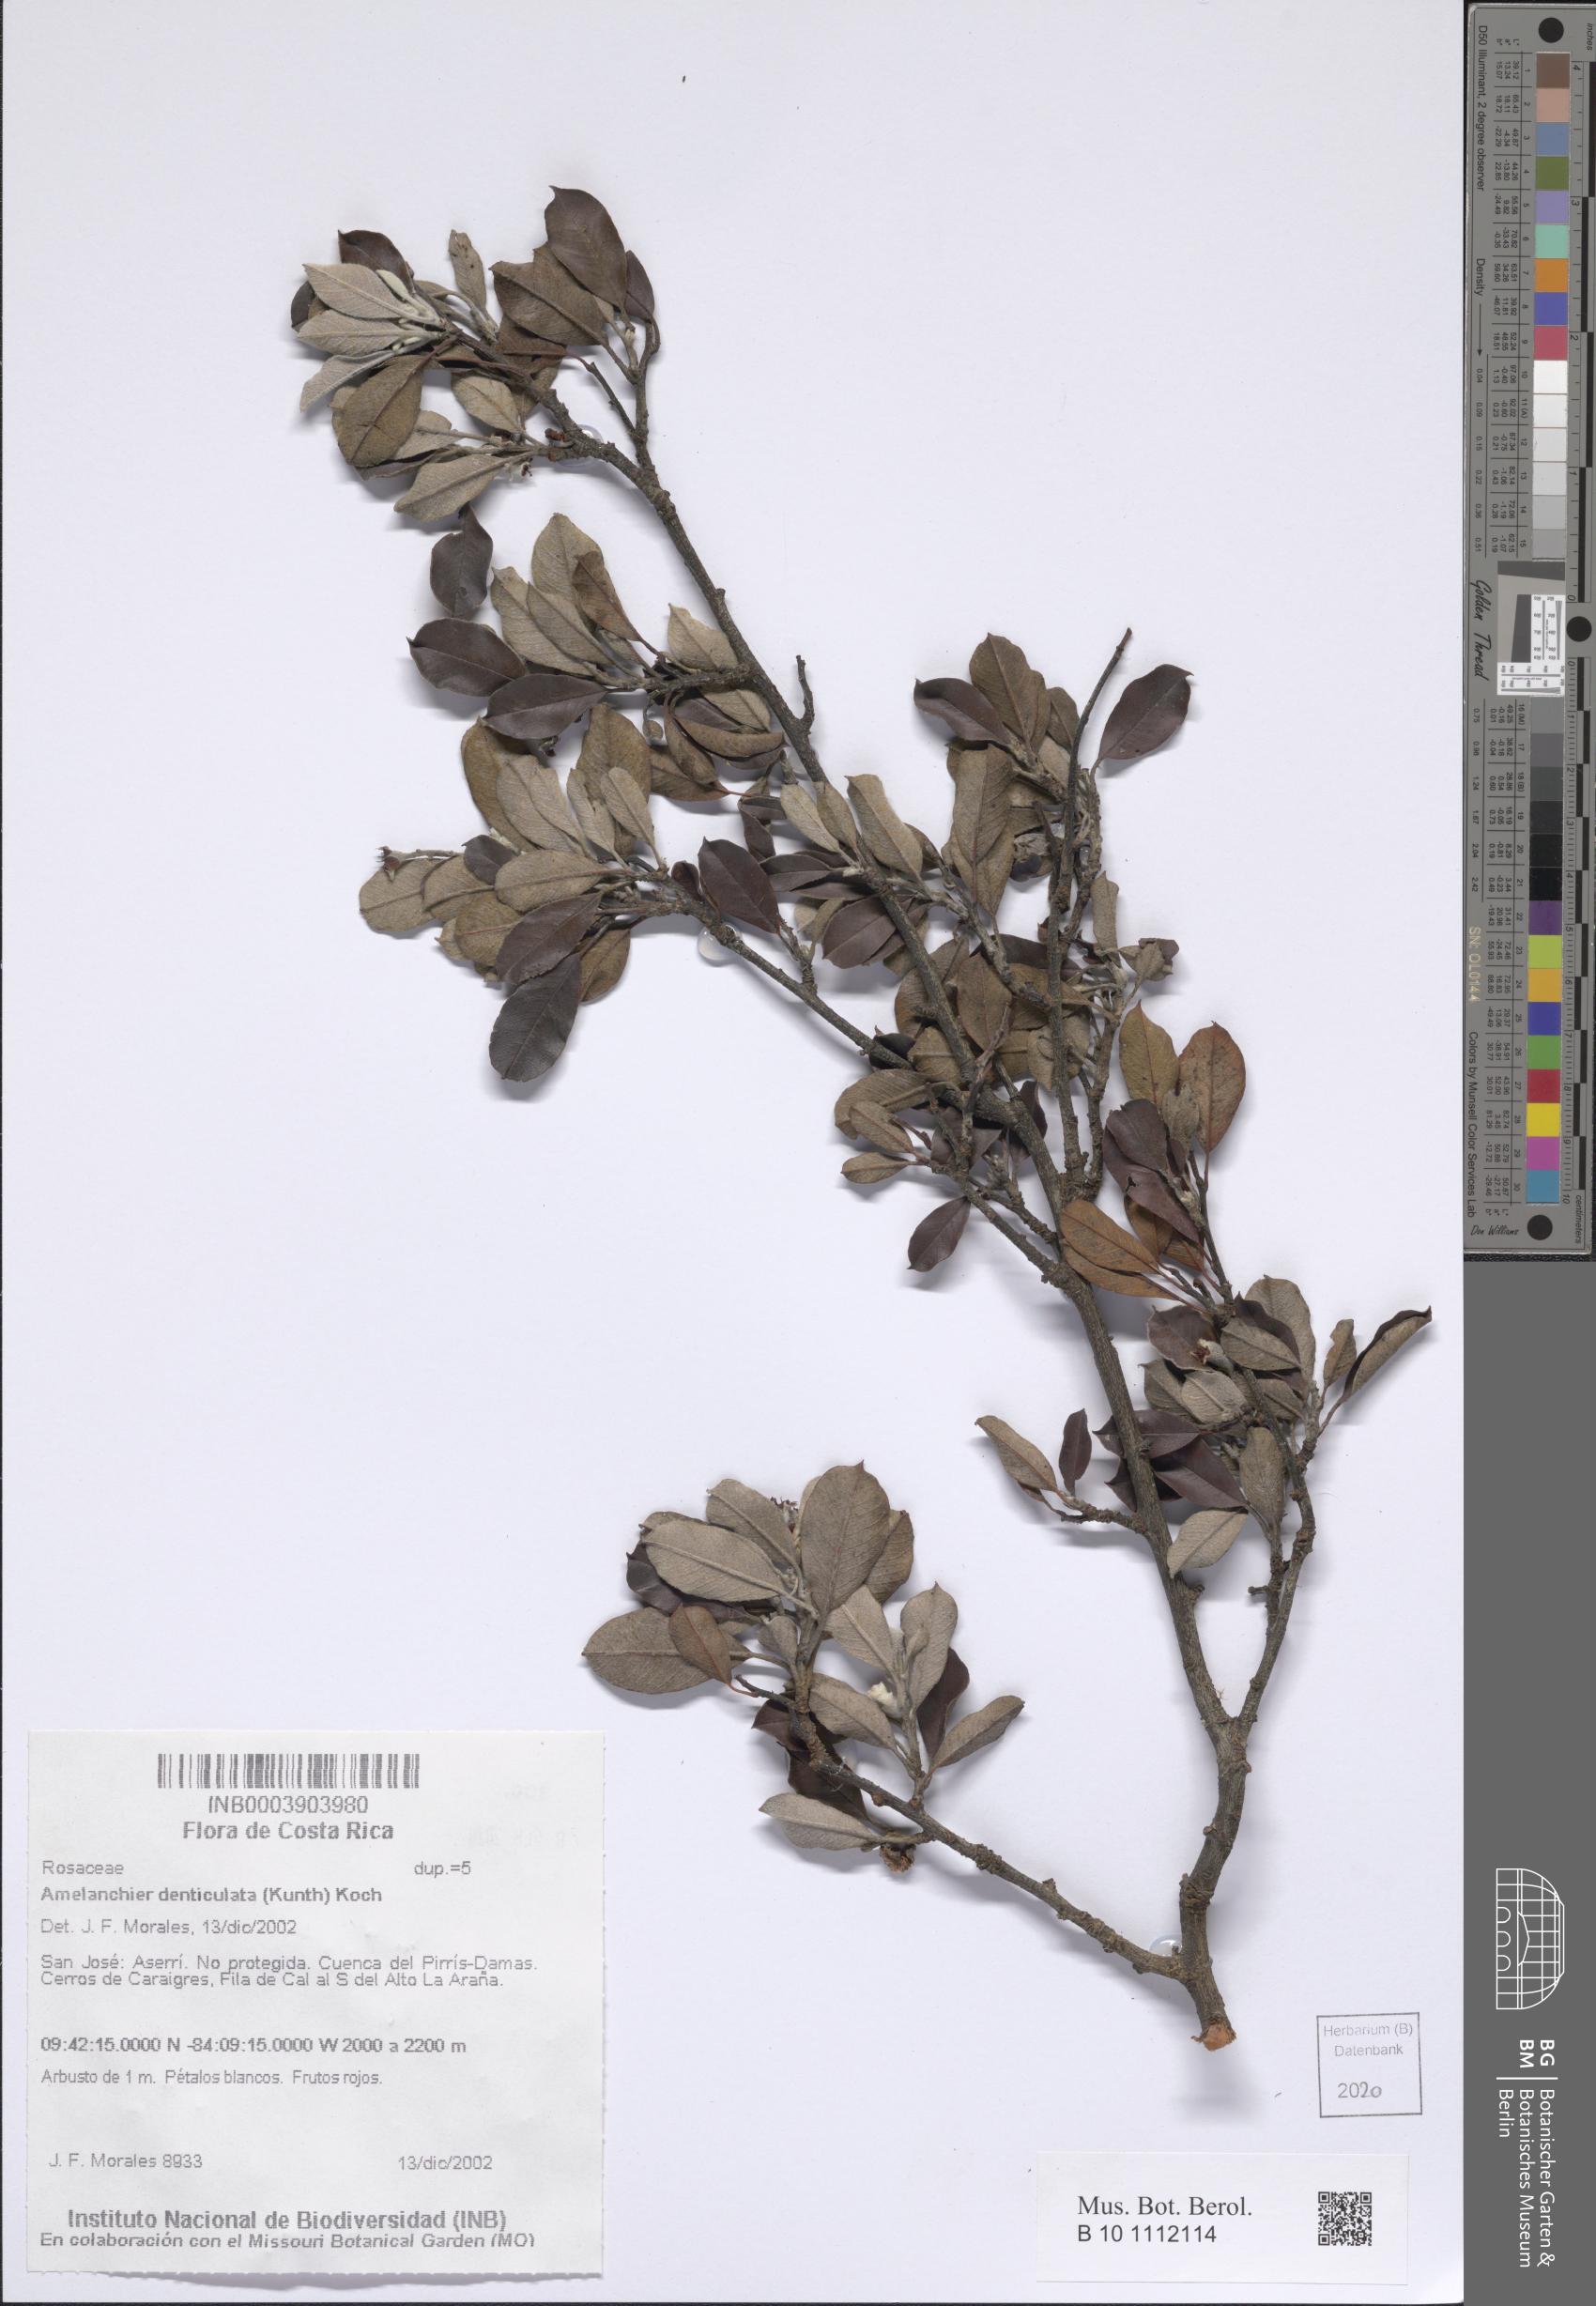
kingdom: Plantae
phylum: Tracheophyta
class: Magnoliopsida
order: Rosales
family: Rosaceae
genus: Malacomeles
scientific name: Malacomeles denticulata
